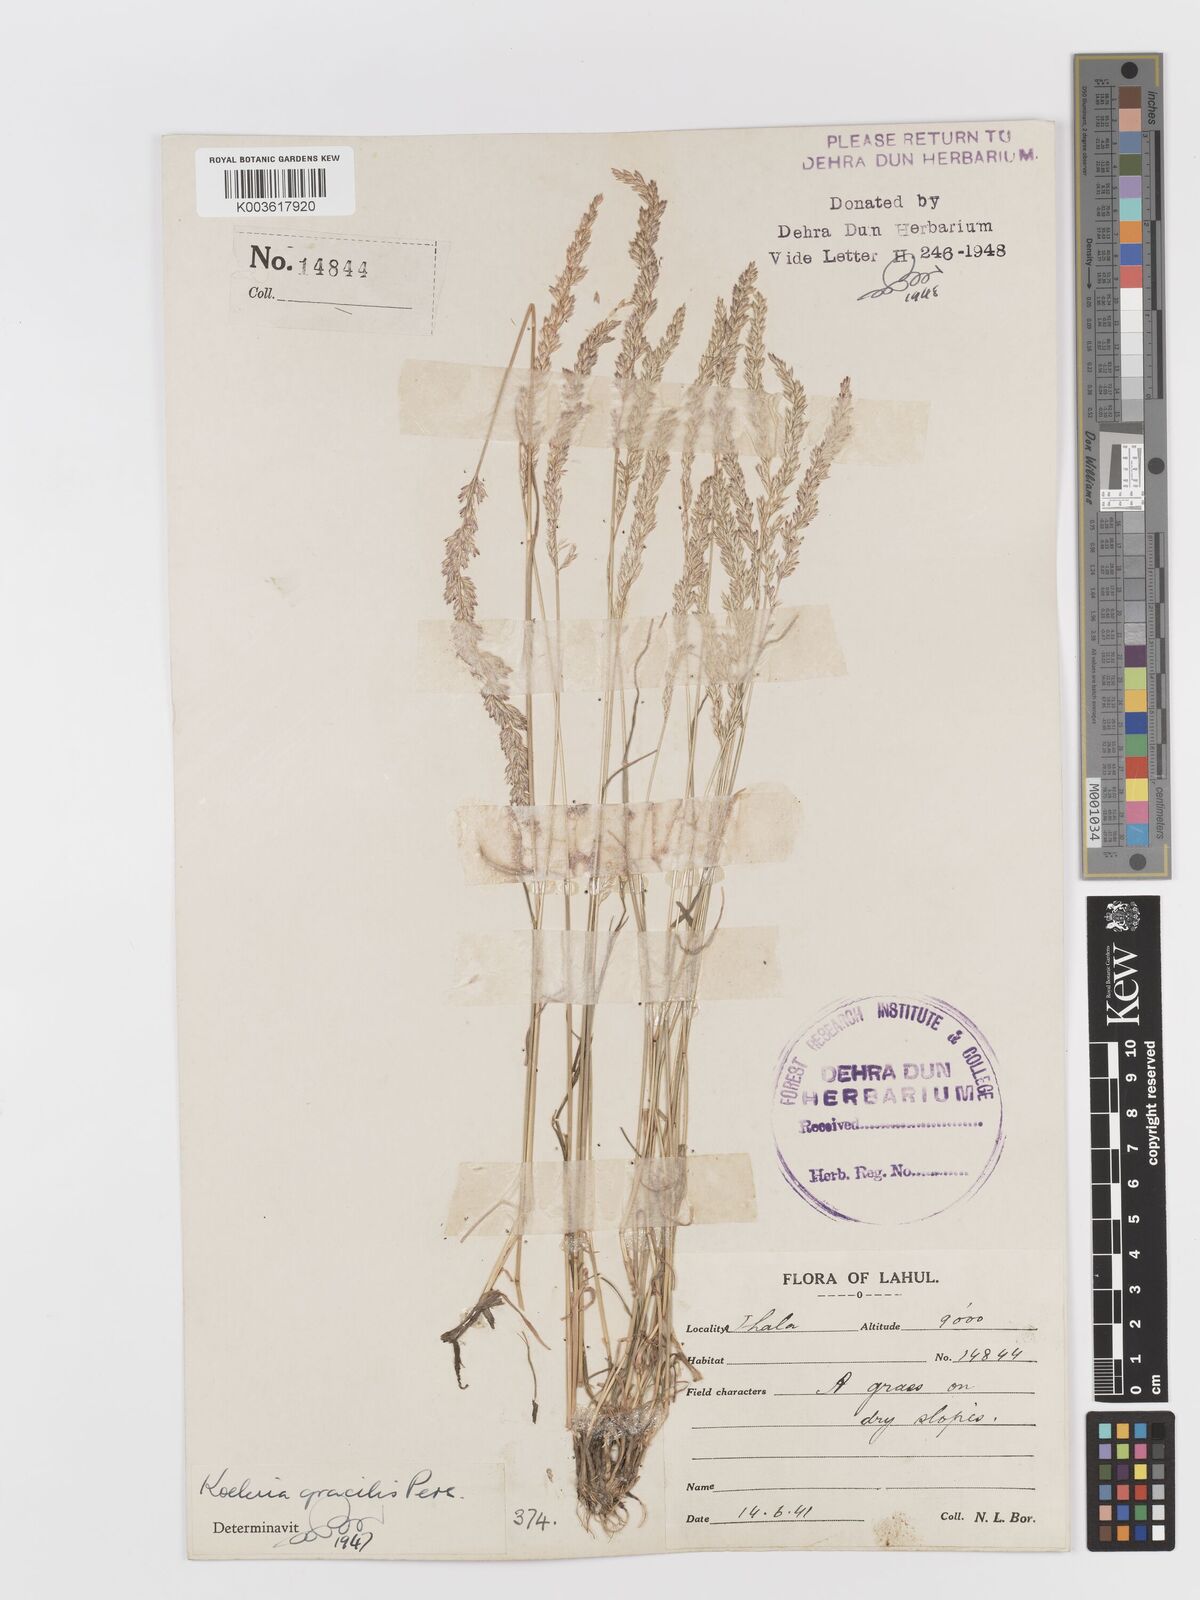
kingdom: Plantae
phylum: Tracheophyta
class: Liliopsida
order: Poales
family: Poaceae
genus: Koeleria
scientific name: Koeleria
